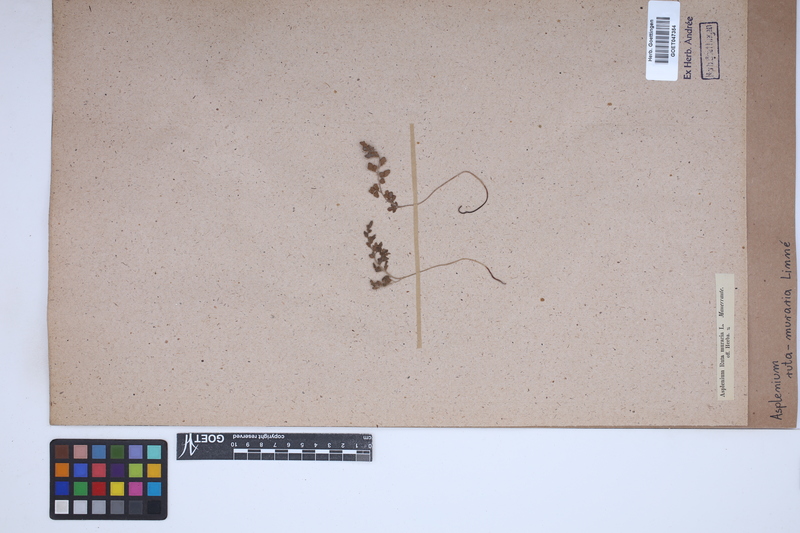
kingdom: Plantae
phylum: Tracheophyta
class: Polypodiopsida
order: Polypodiales
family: Aspleniaceae
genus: Asplenium
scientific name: Asplenium ruta-muraria
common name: Wall-rue
